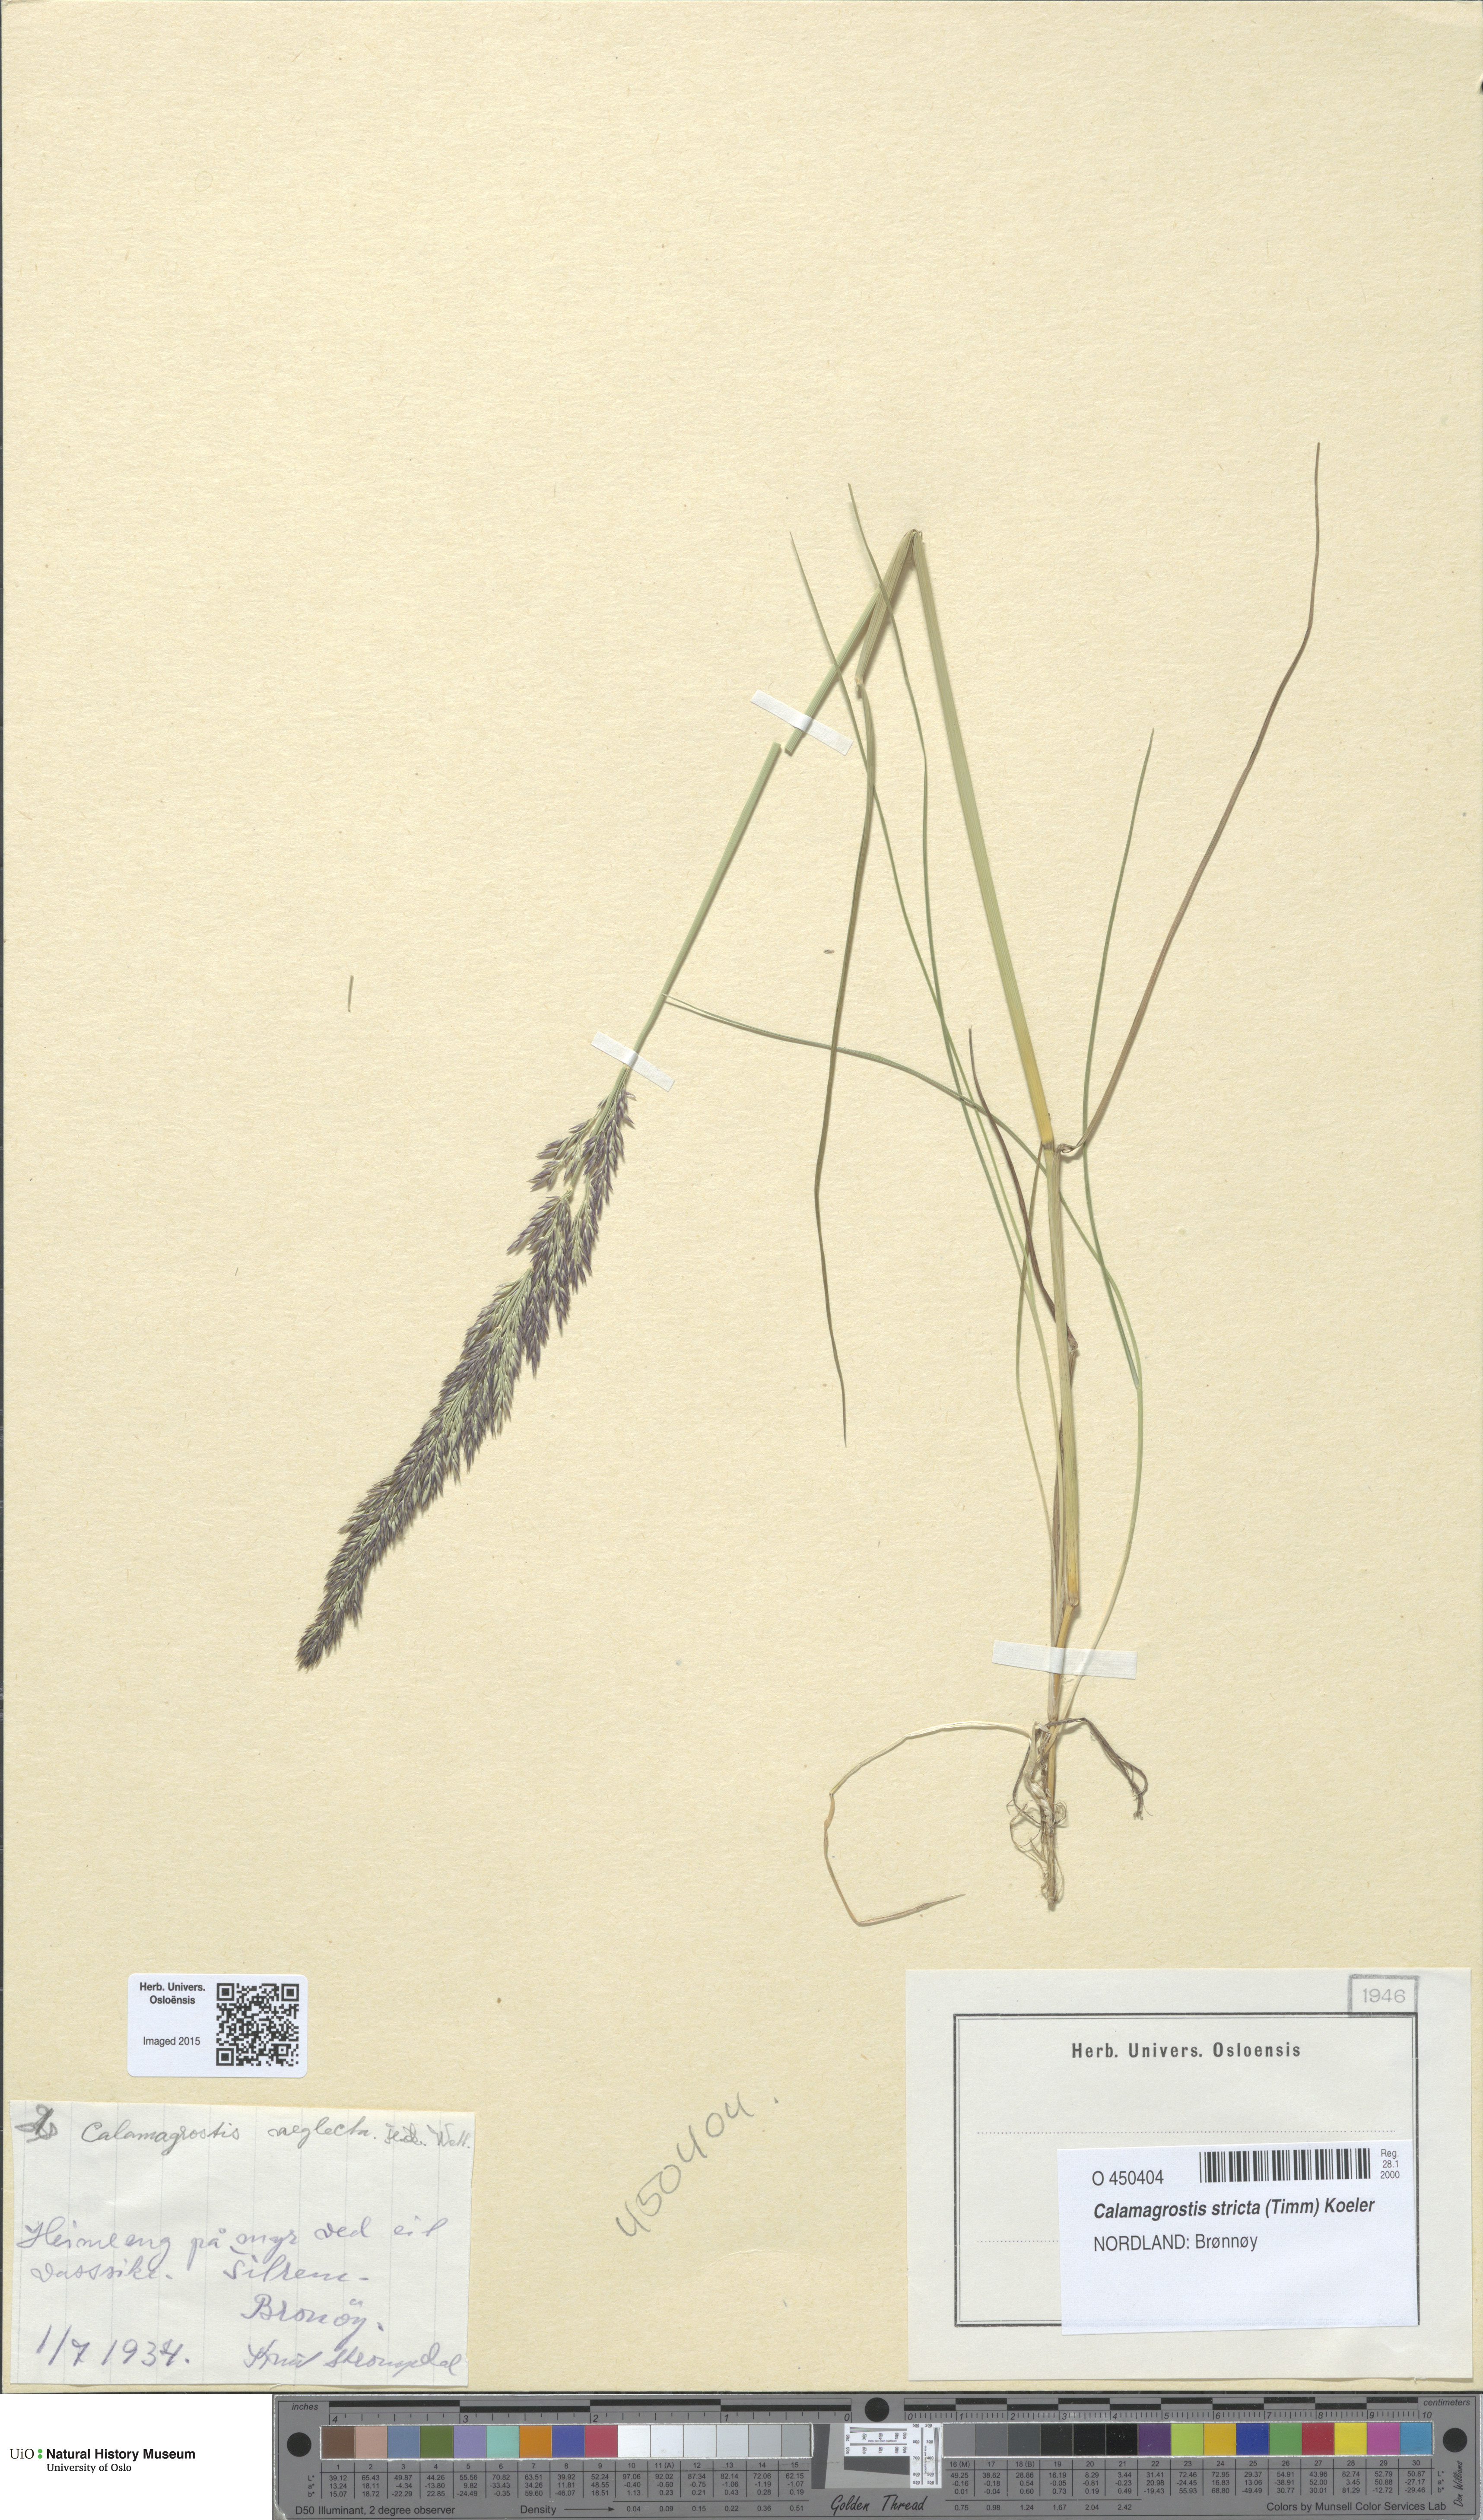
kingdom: Plantae
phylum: Tracheophyta
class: Liliopsida
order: Poales
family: Poaceae
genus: Achnatherum
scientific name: Achnatherum calamagrostis
